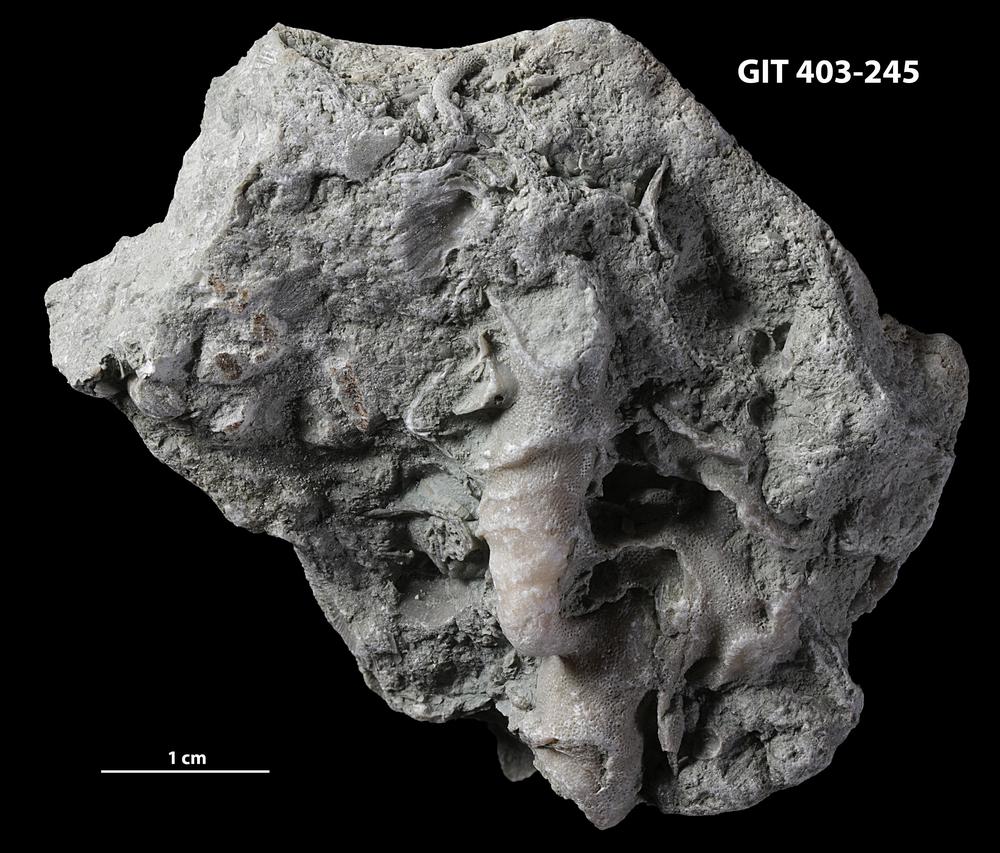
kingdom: Animalia
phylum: Bryozoa
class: Stenolaemata
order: Cystoporida
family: Fistuliporidae
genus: Fistulipora
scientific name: Fistulipora przhidolensis
